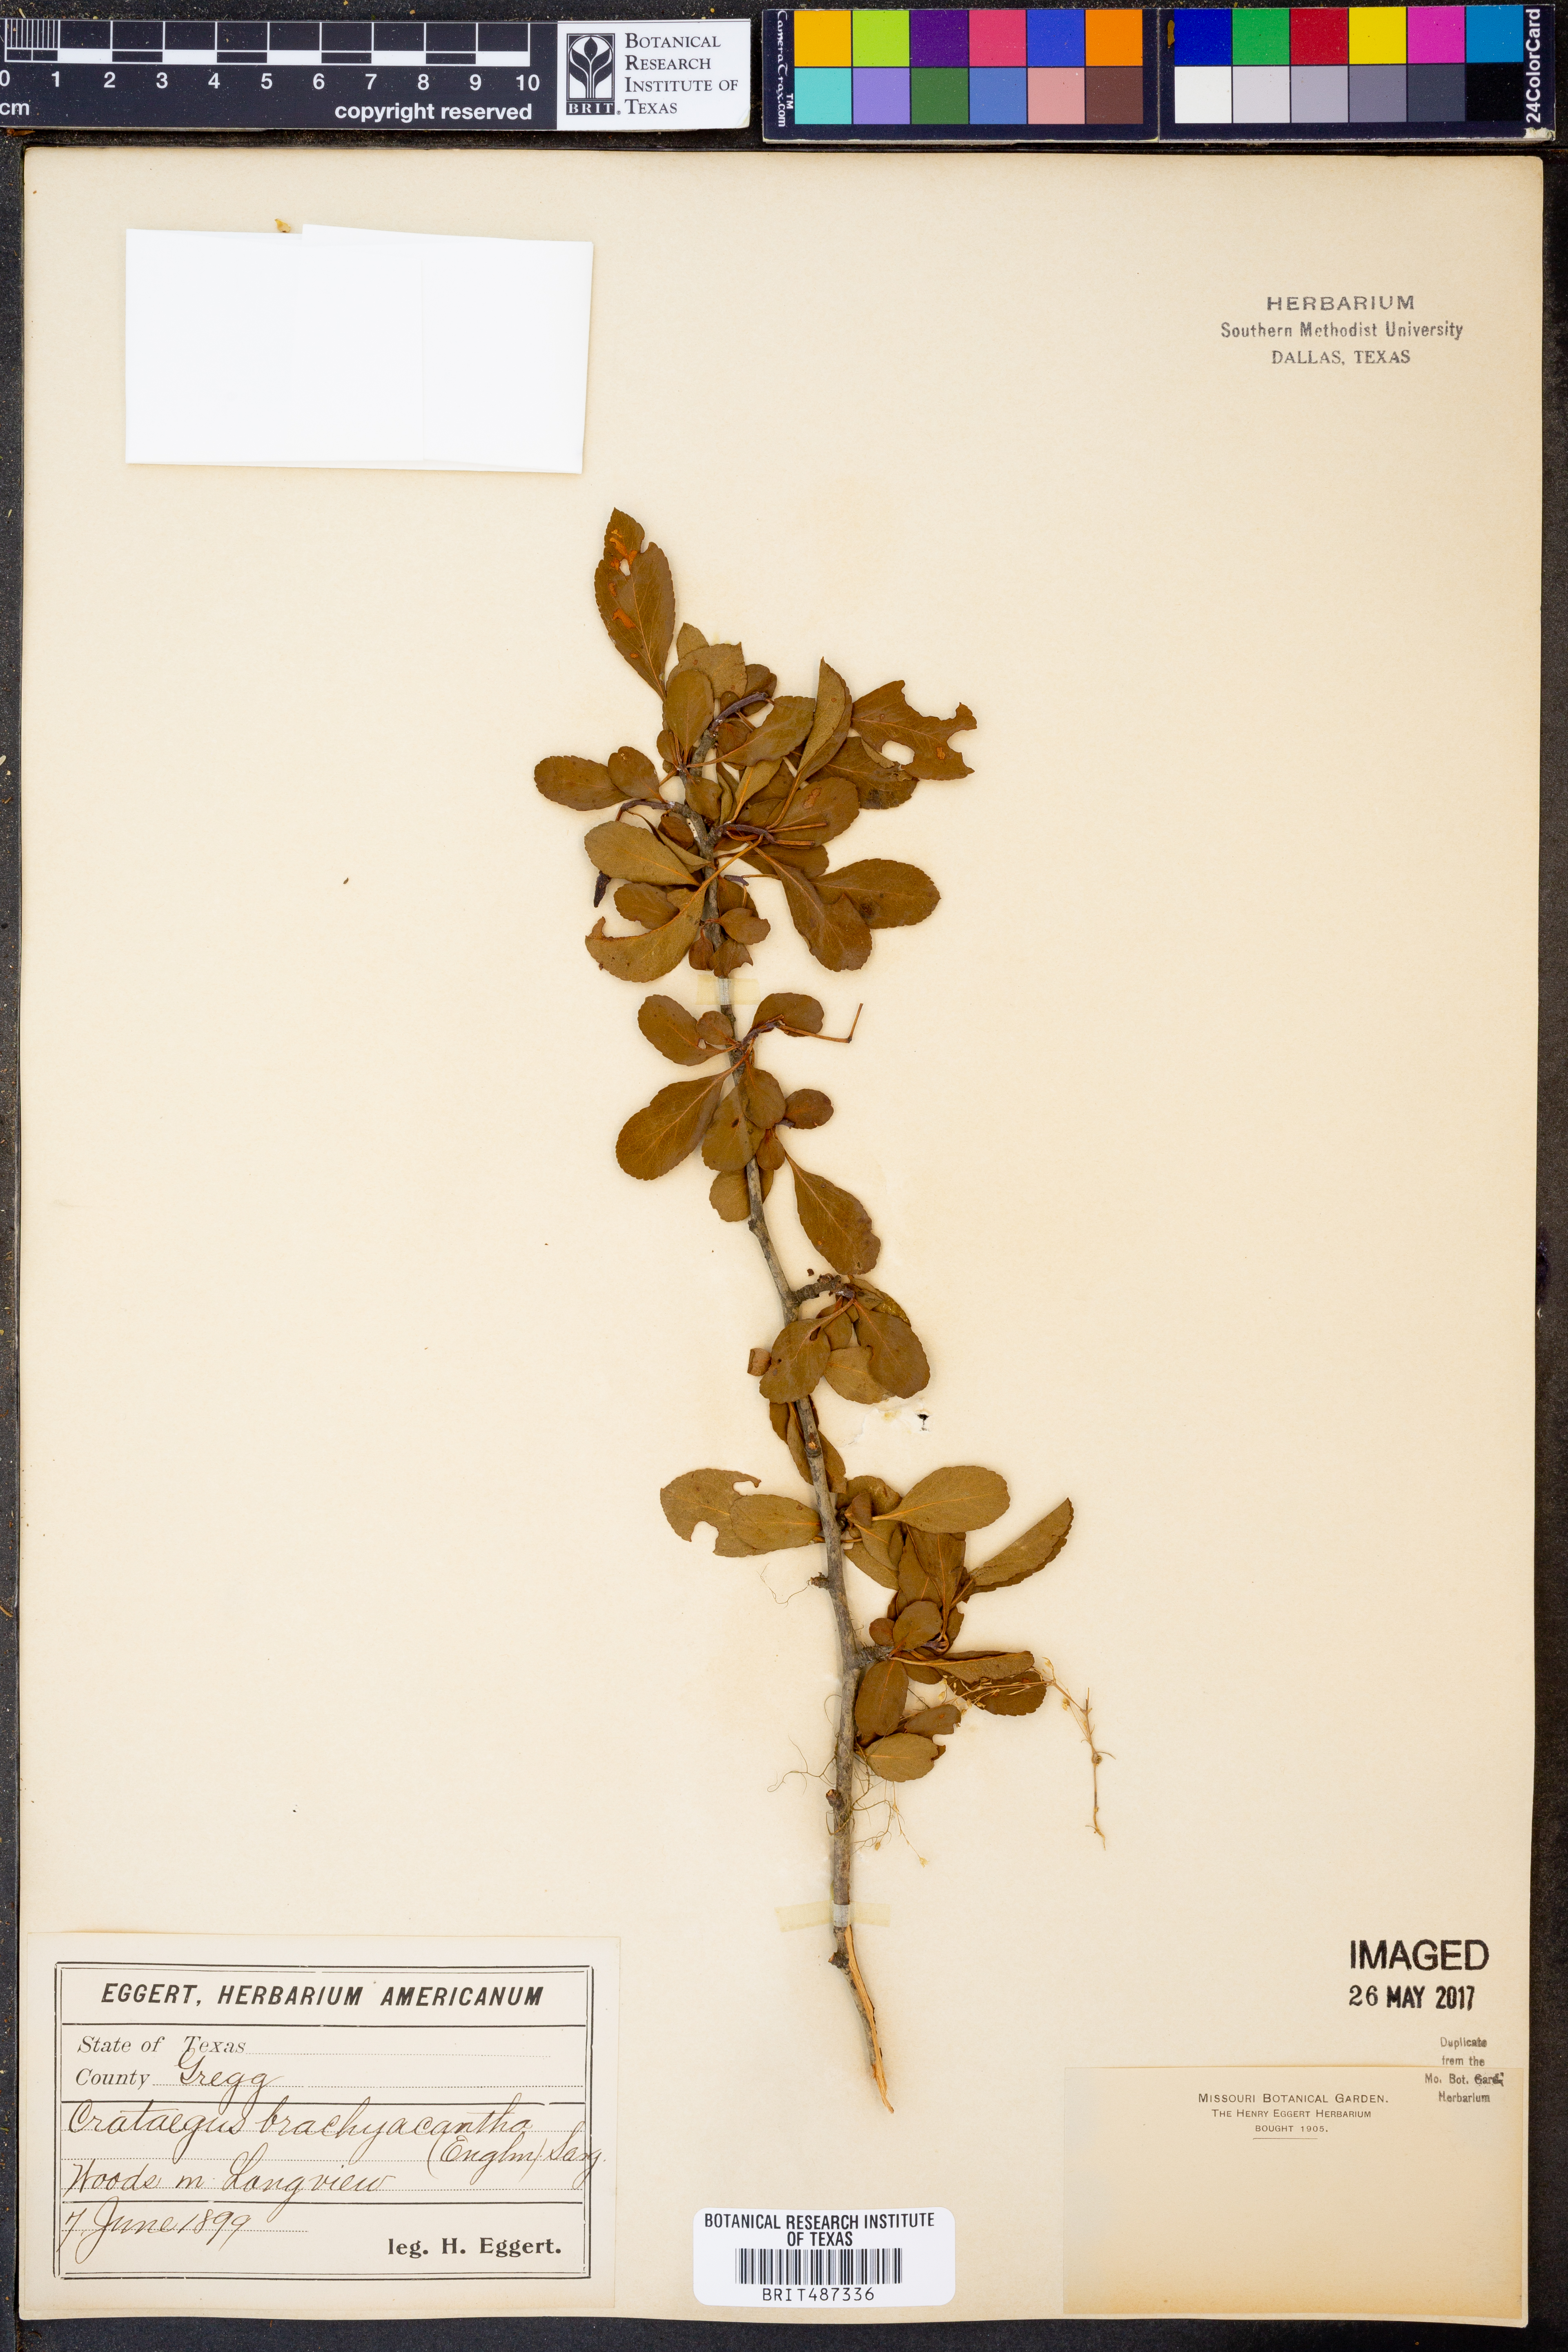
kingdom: Plantae
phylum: Tracheophyta
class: Magnoliopsida
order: Rosales
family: Rosaceae
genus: Crataegus
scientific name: Crataegus brachyacantha
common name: Blueberry-hawthorn
